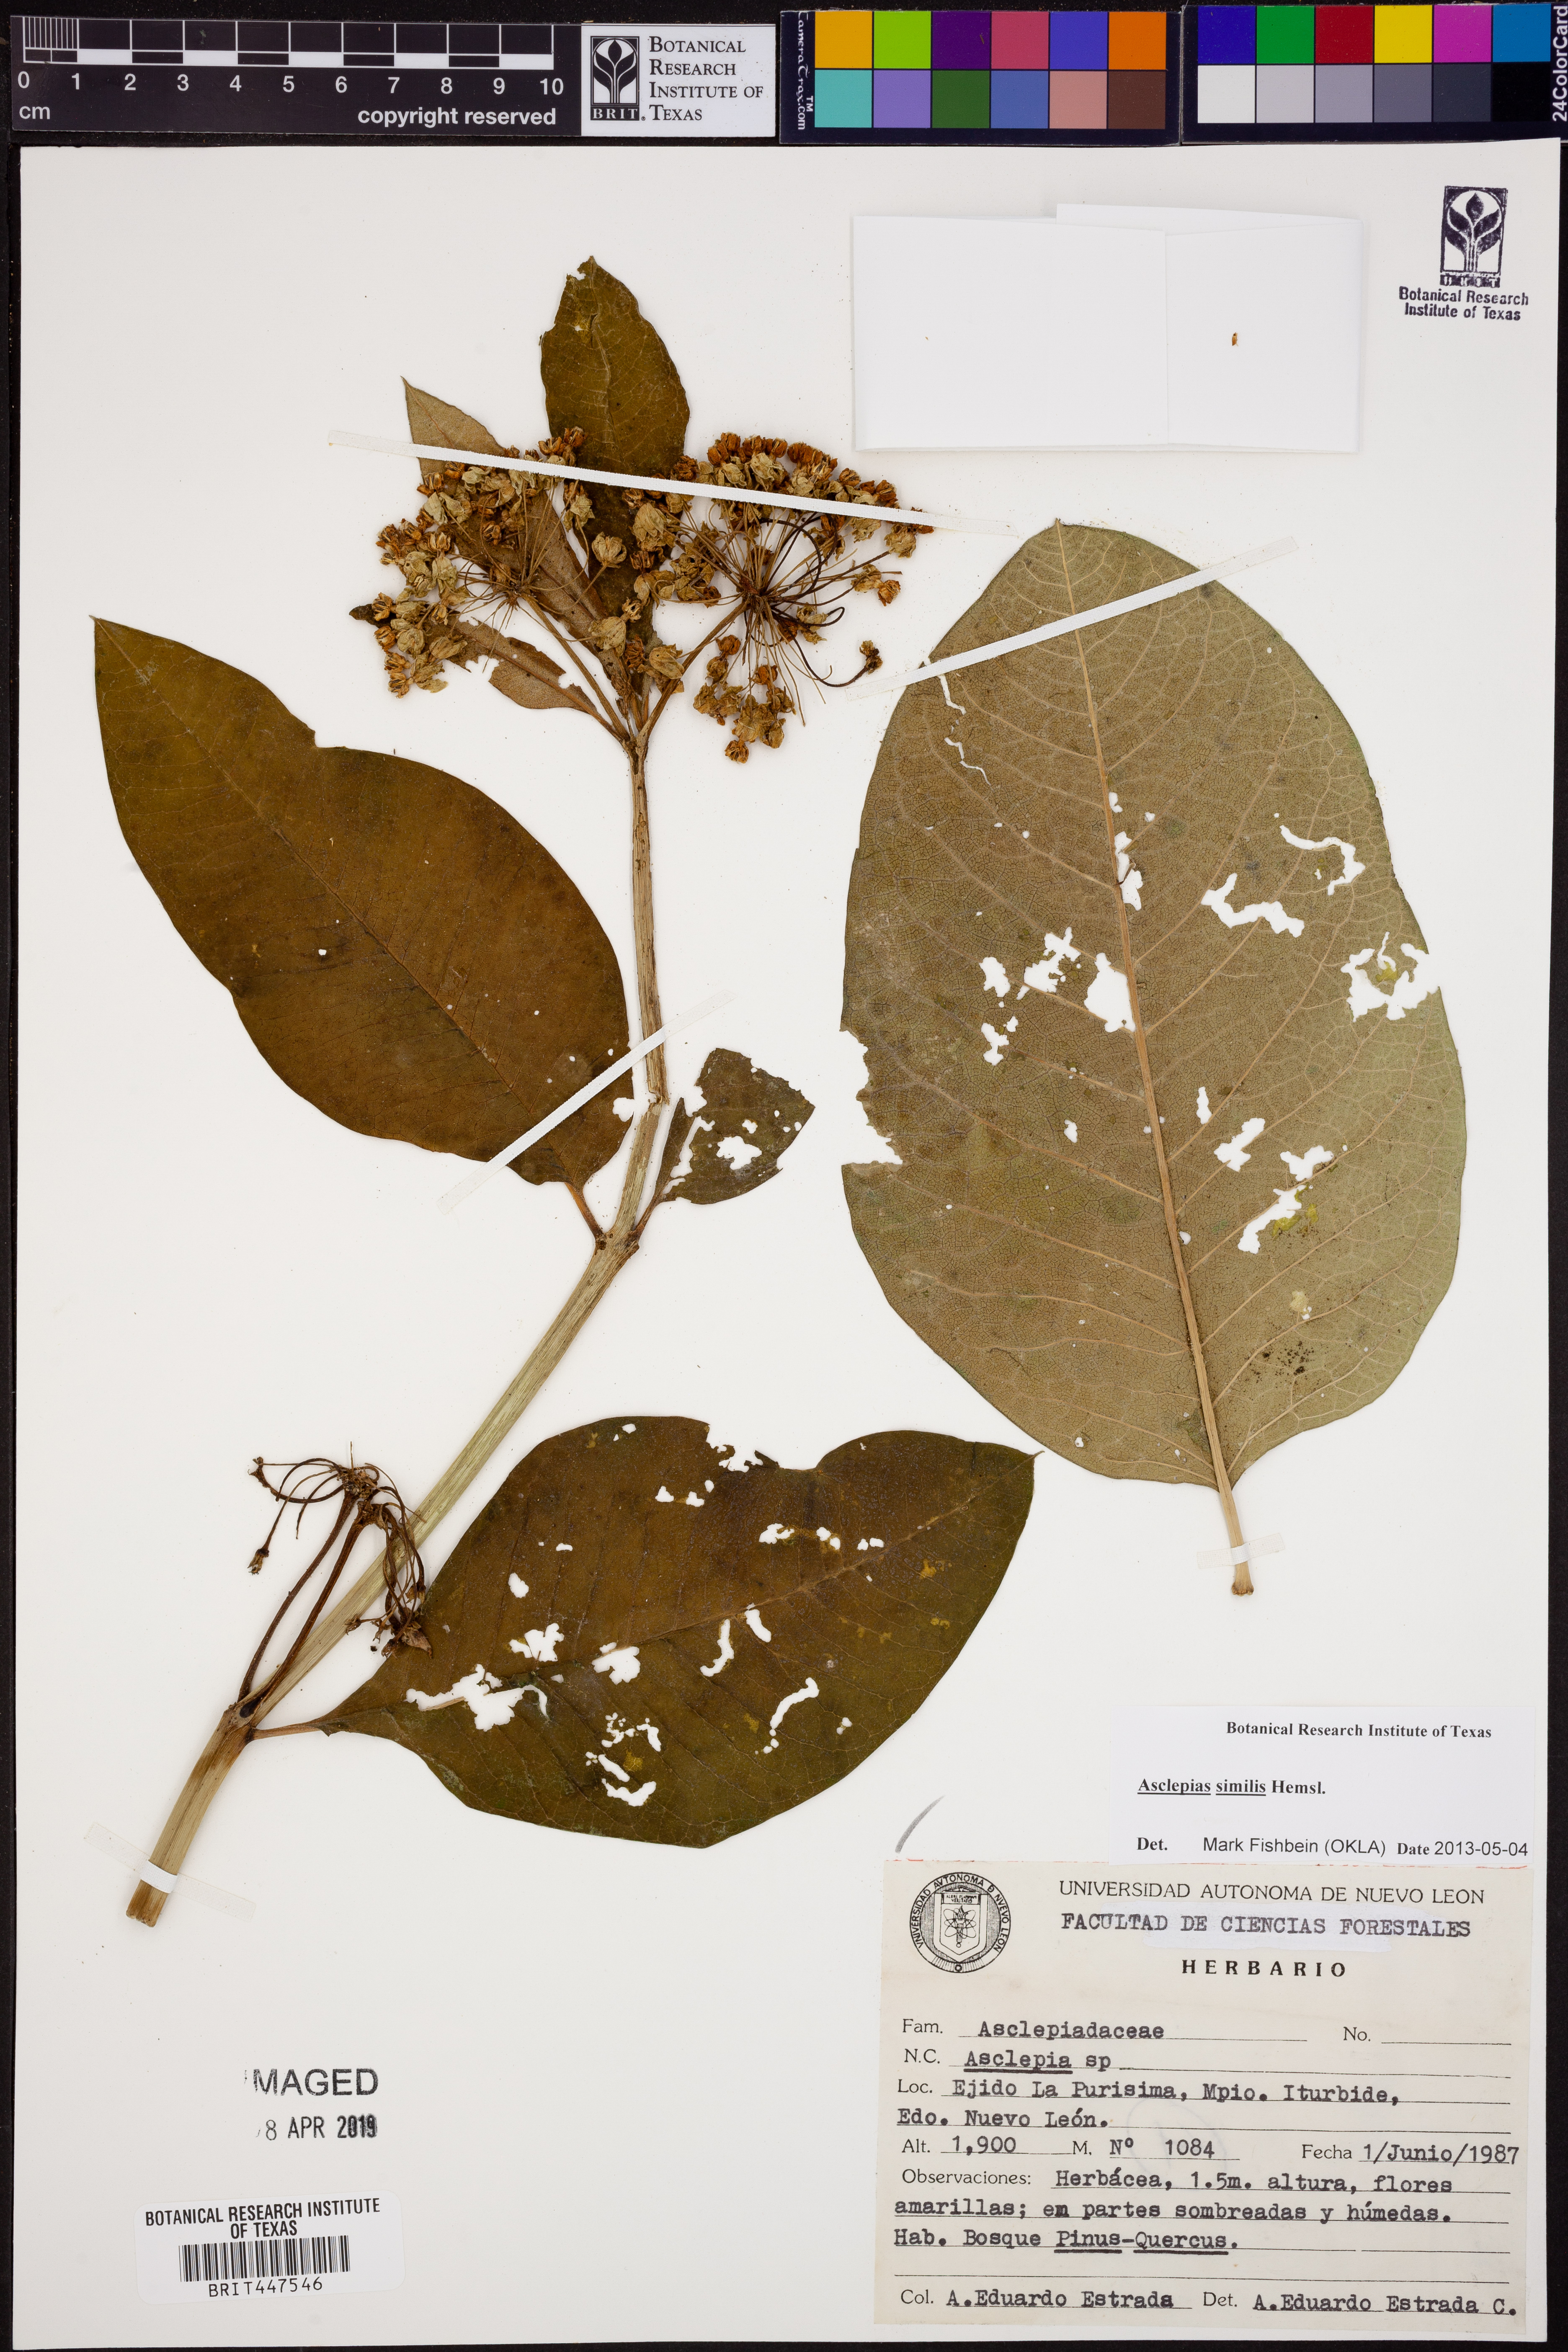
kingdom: Plantae
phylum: Tracheophyta
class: Magnoliopsida
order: Gentianales
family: Apocynaceae
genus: Asclepias
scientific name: Asclepias similis
